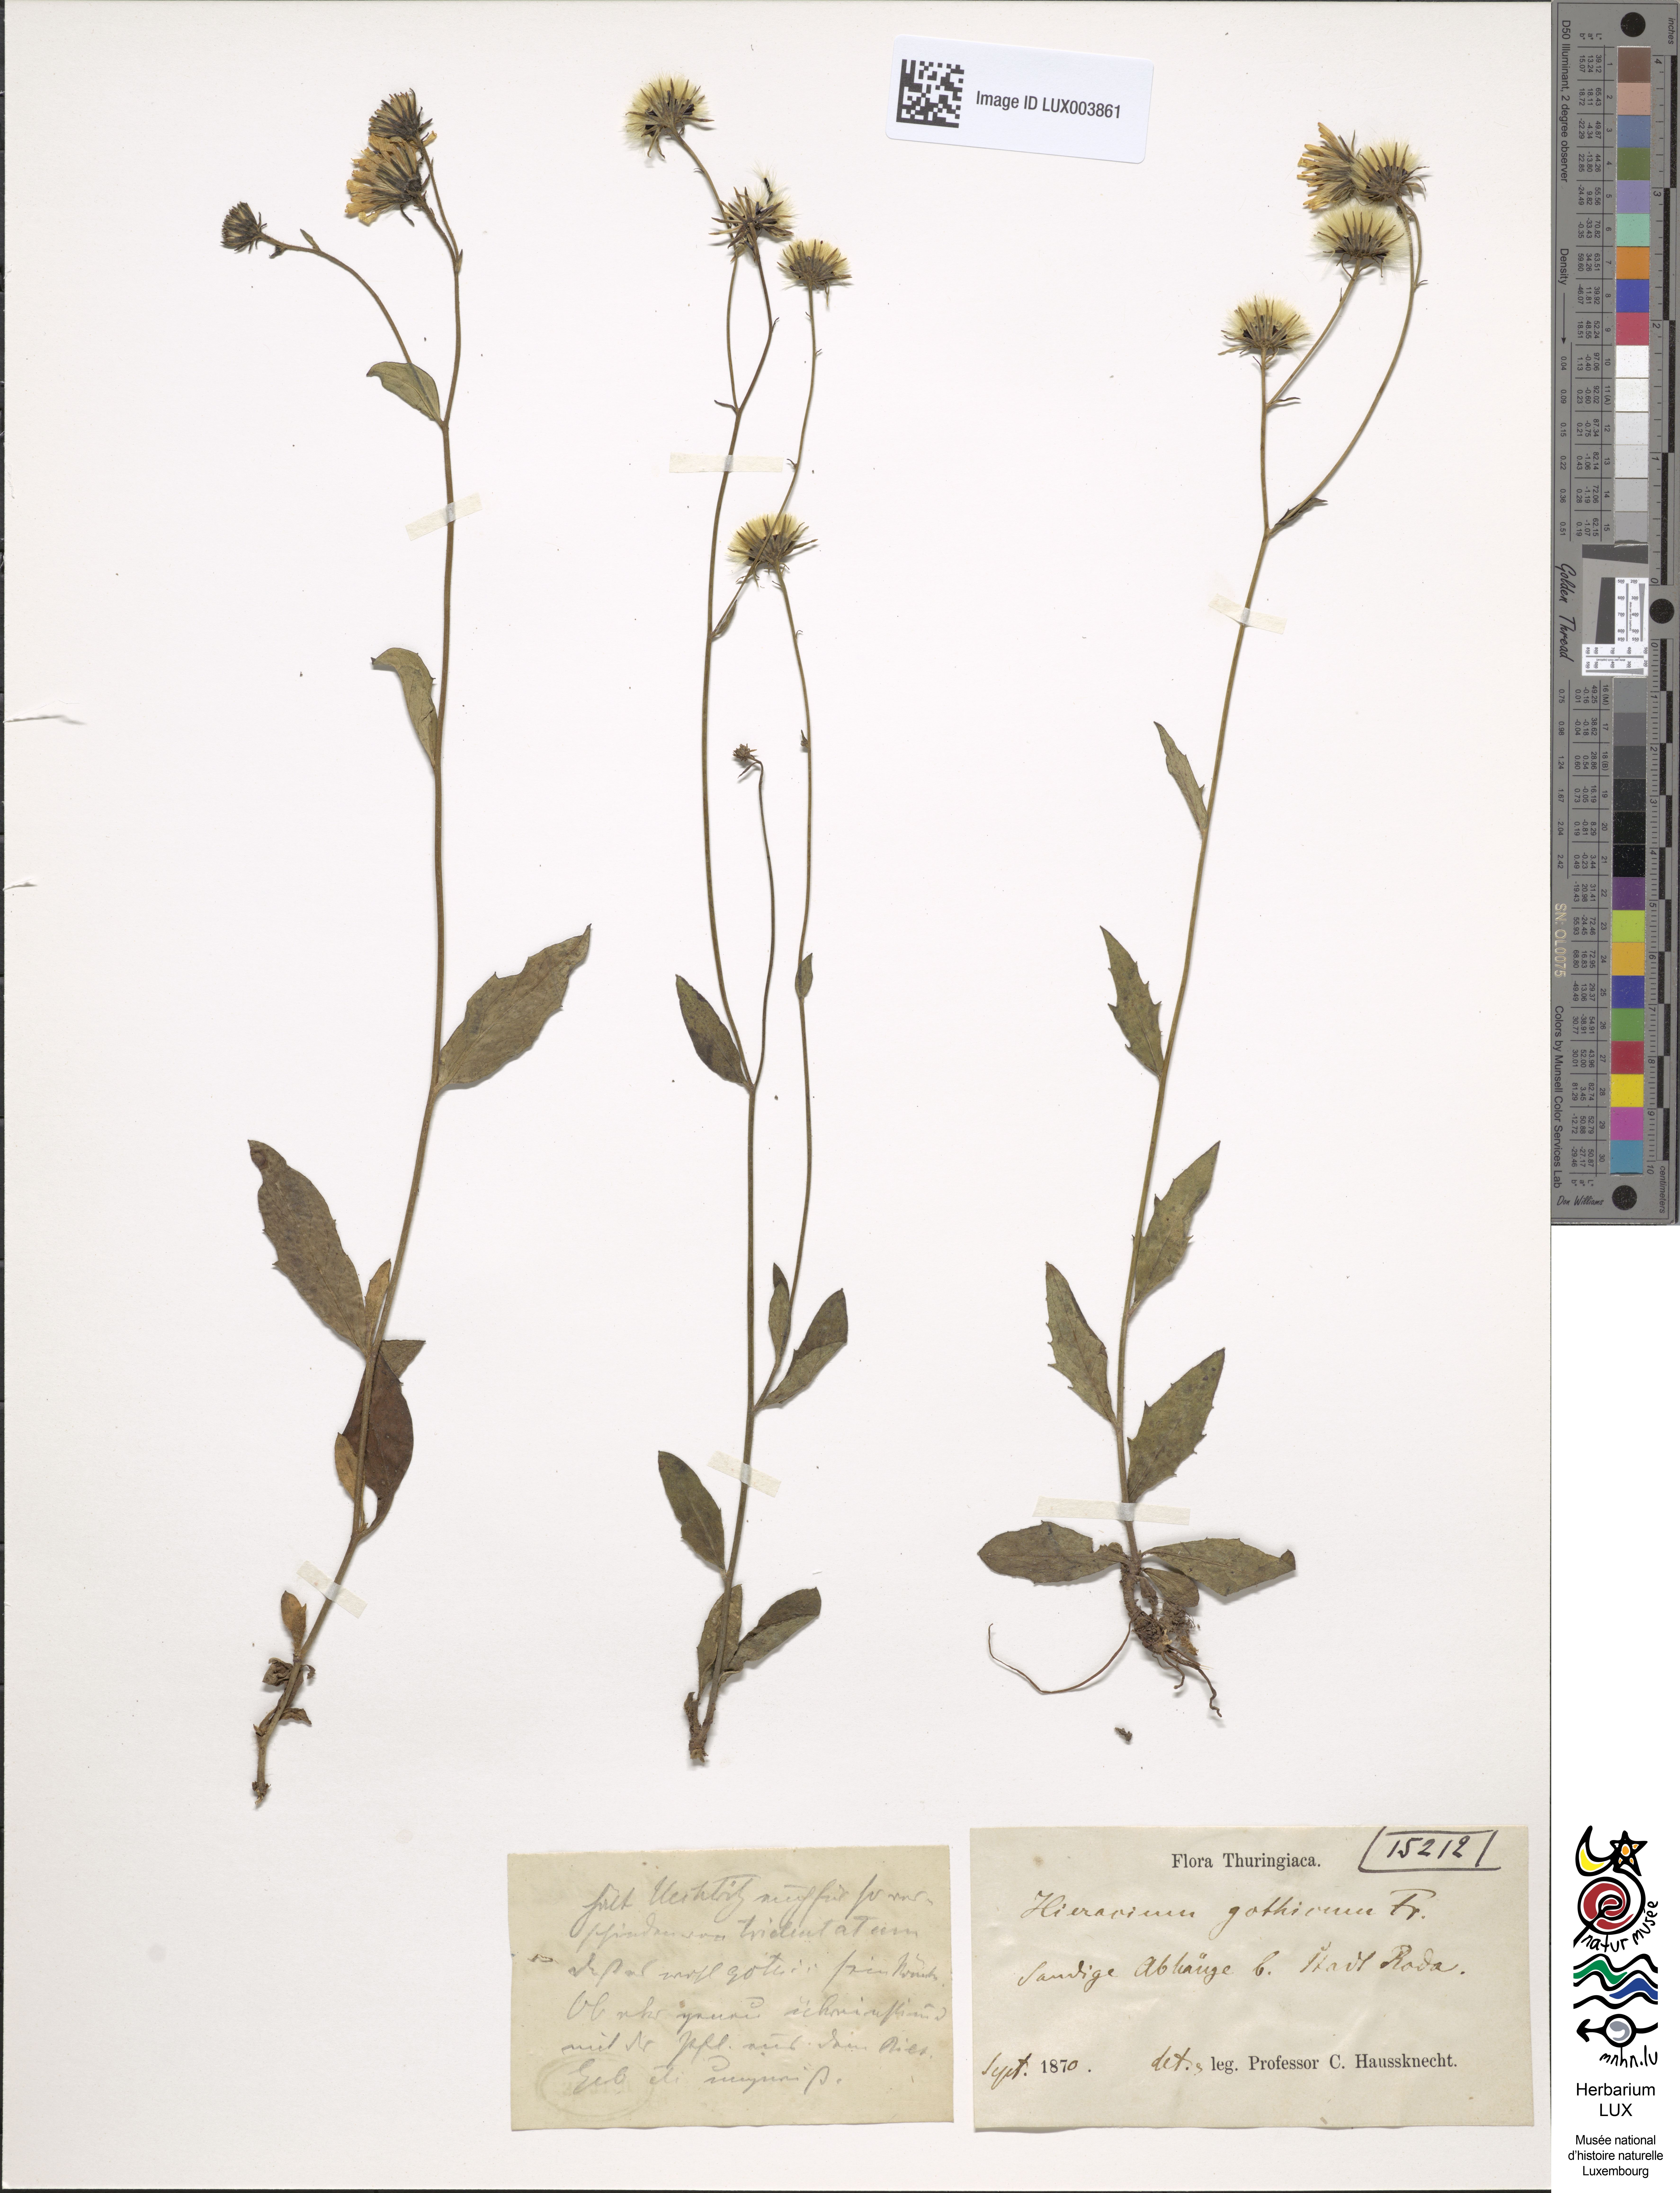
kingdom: Plantae
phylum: Tracheophyta
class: Magnoliopsida
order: Asterales
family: Asteraceae
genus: Hieracium
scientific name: Hieracium laevigatum
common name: Smooth hawkweed
